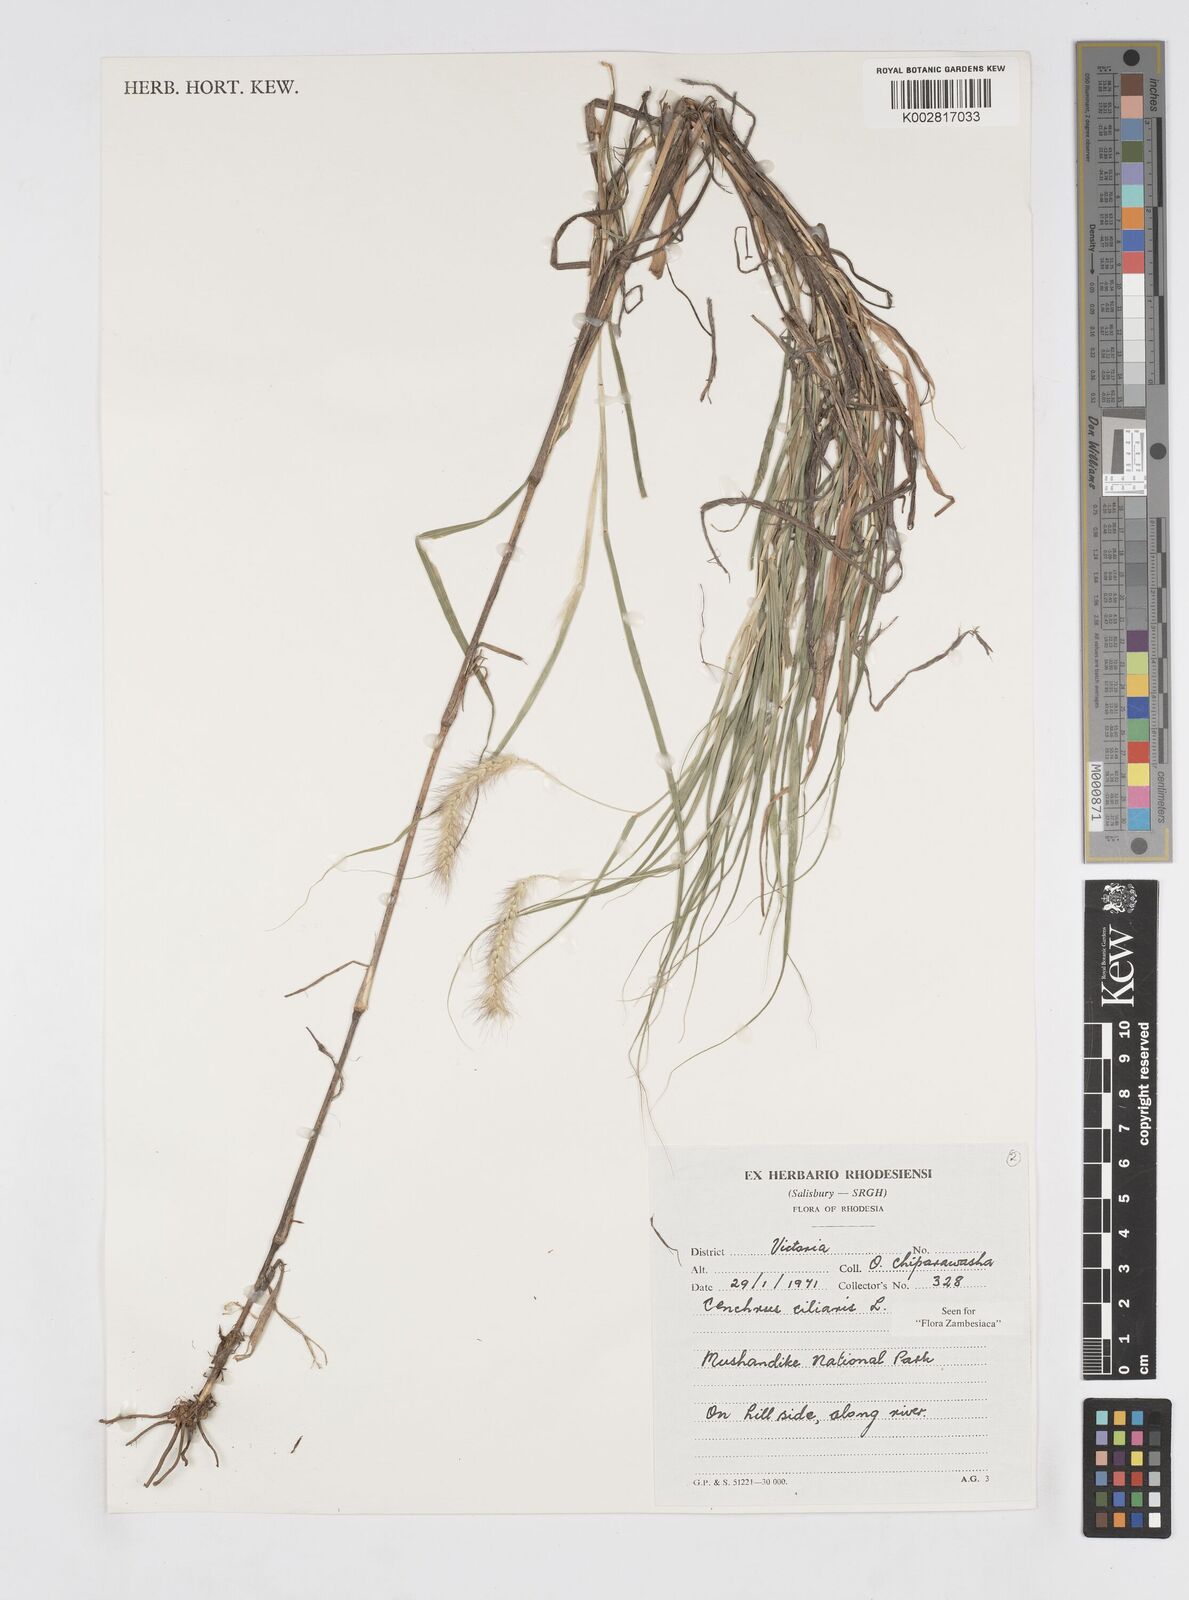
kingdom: Plantae
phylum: Tracheophyta
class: Liliopsida
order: Poales
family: Poaceae
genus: Cenchrus
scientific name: Cenchrus ciliaris
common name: Buffelgrass
